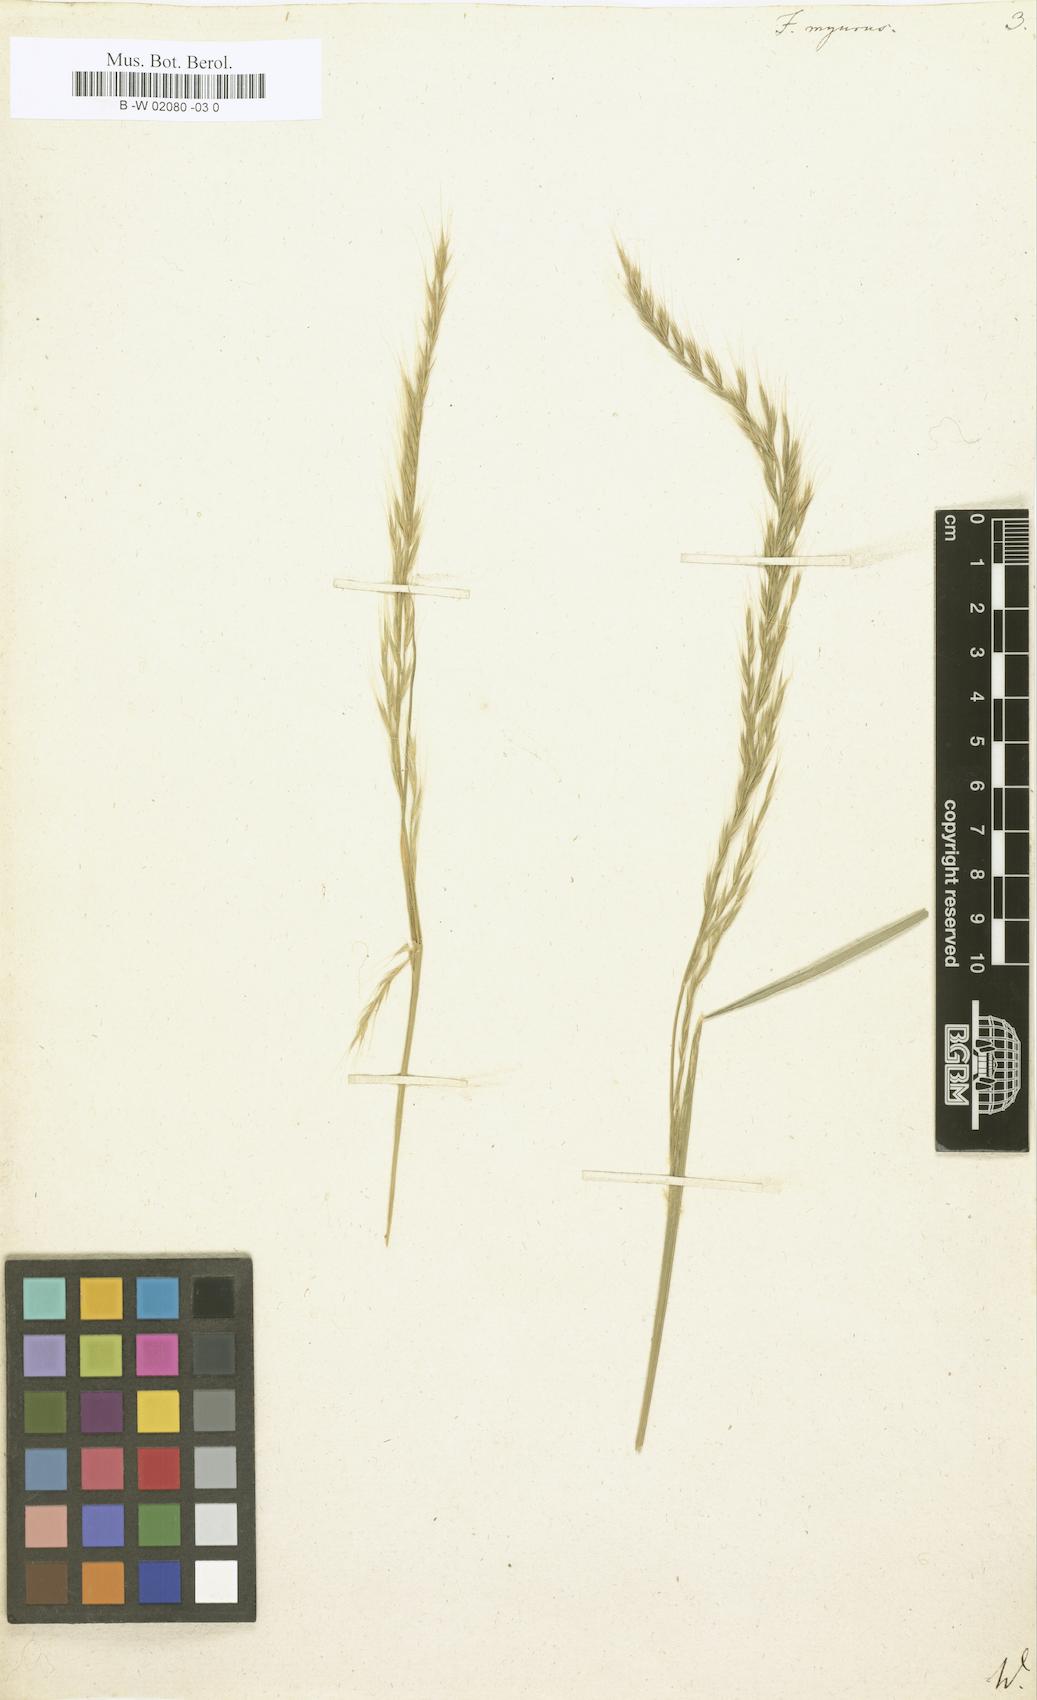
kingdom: Plantae
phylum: Tracheophyta
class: Liliopsida
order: Poales
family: Poaceae
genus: Festuca
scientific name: Festuca myurus
